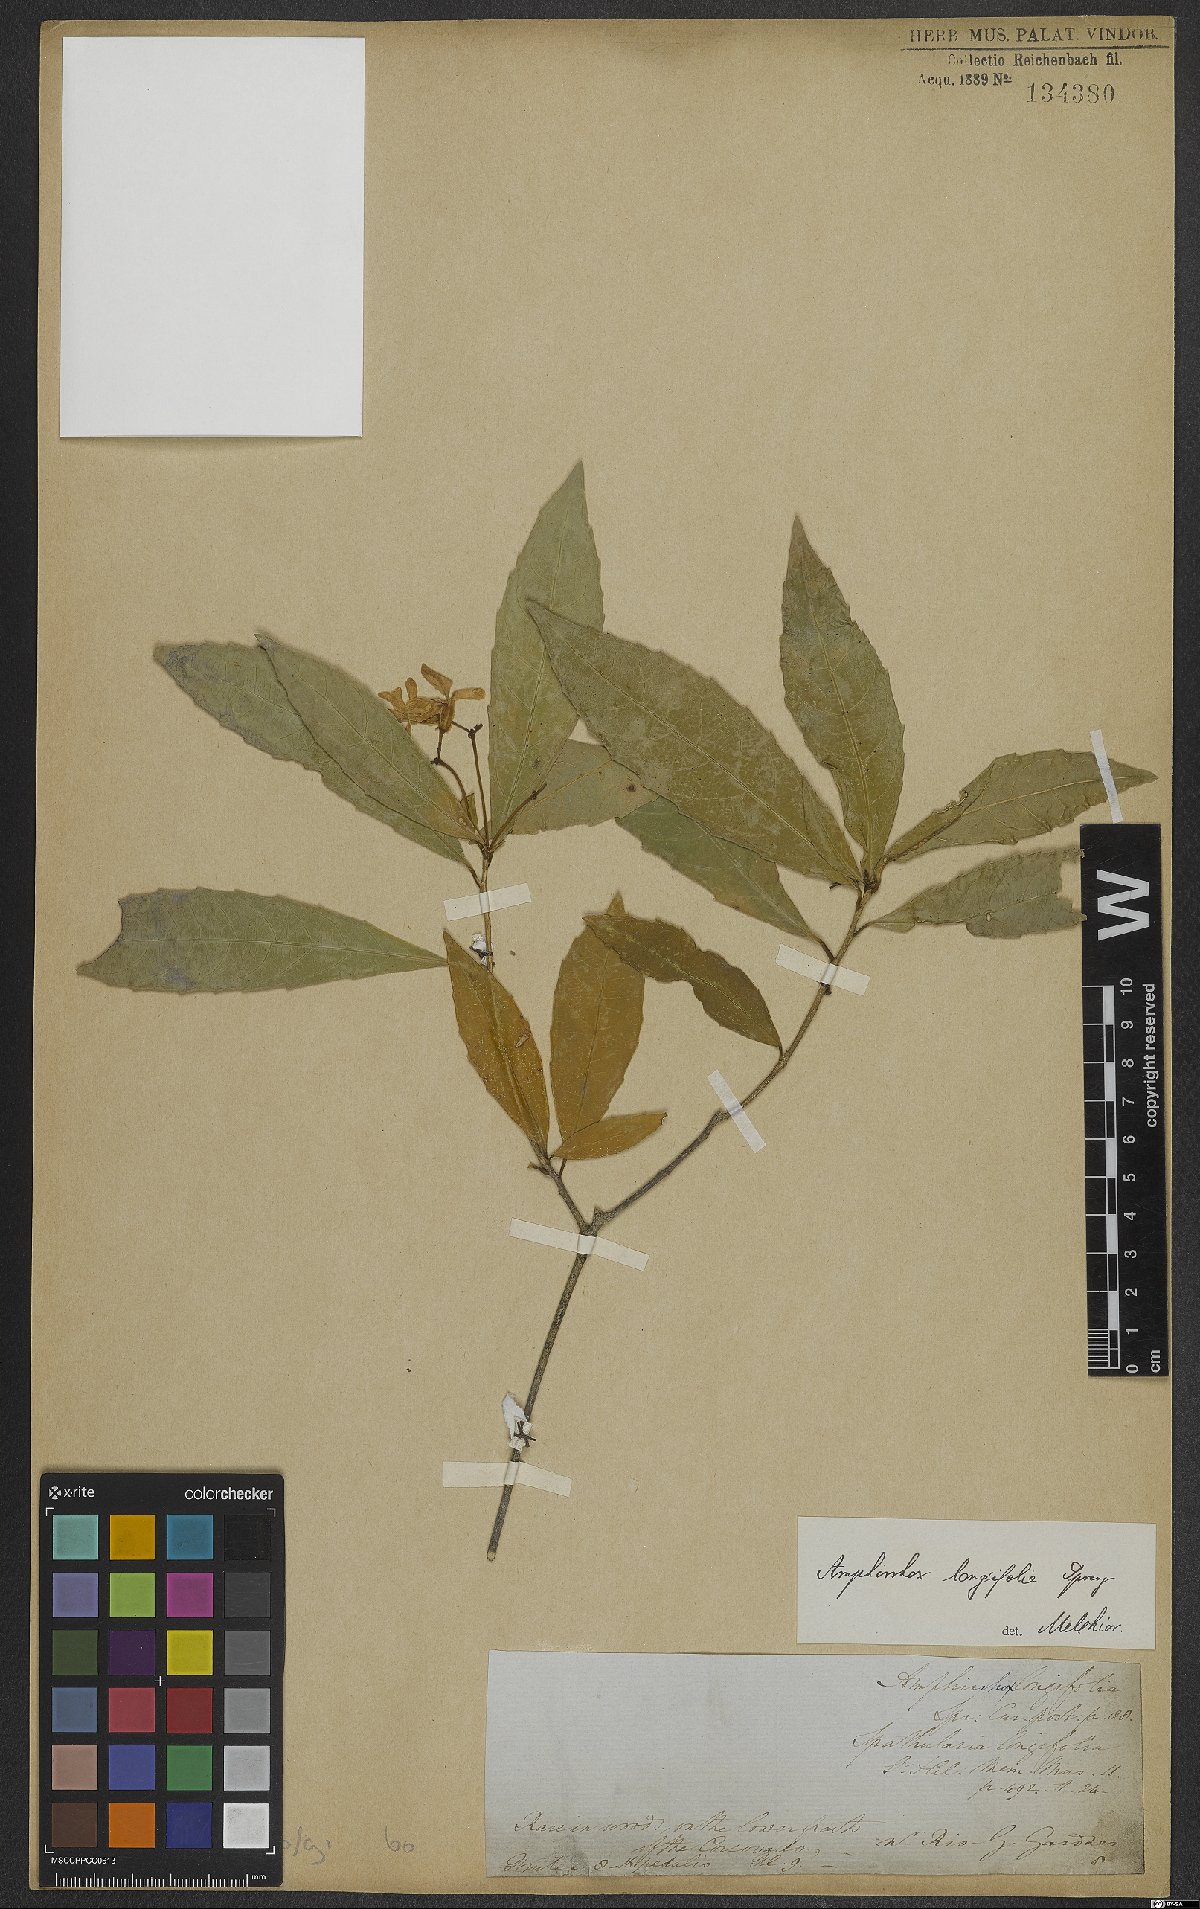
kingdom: Plantae
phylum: Tracheophyta
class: Magnoliopsida
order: Malpighiales
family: Violaceae
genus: Amphirrhox
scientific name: Amphirrhox longifolia
